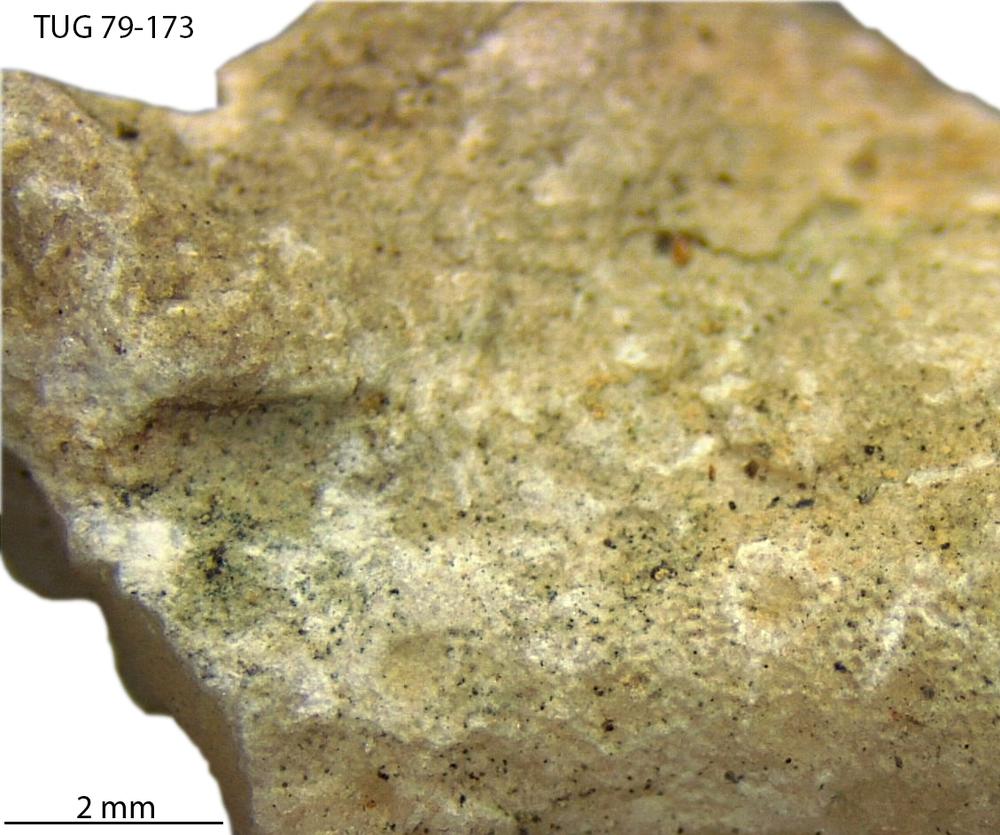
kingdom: Animalia
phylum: Bryozoa
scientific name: Bryozoa
